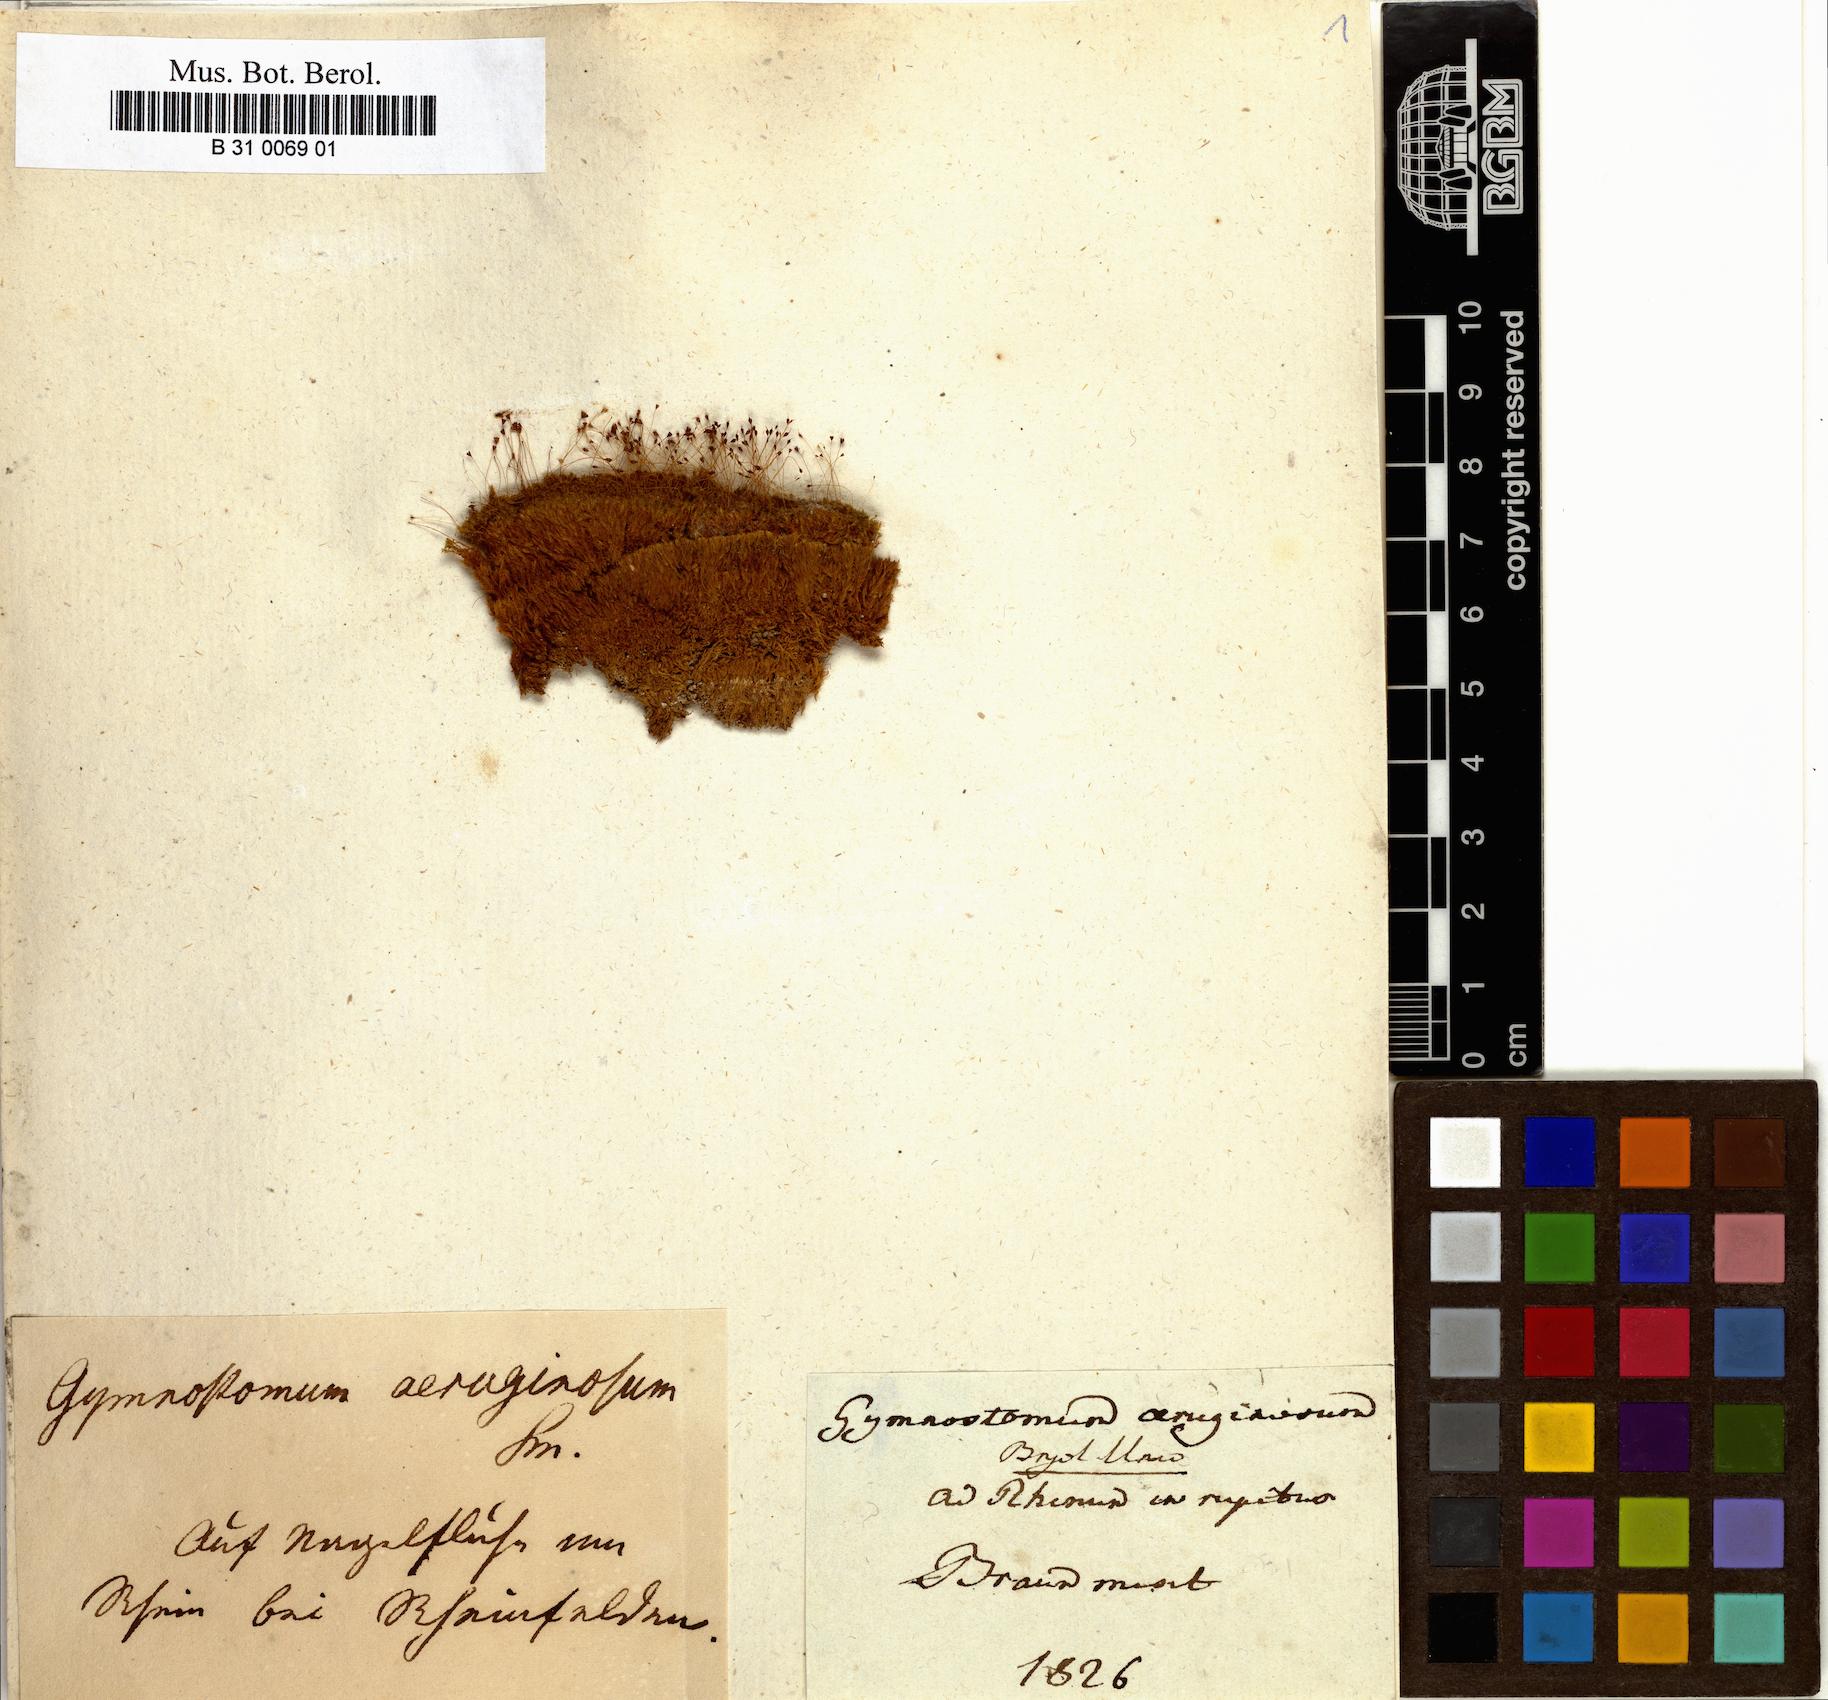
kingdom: Plantae
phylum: Bryophyta
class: Bryopsida
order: Pottiales
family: Pottiaceae
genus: Gymnostomum
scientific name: Gymnostomum aeruginosum
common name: Verdigris tufa-moss
